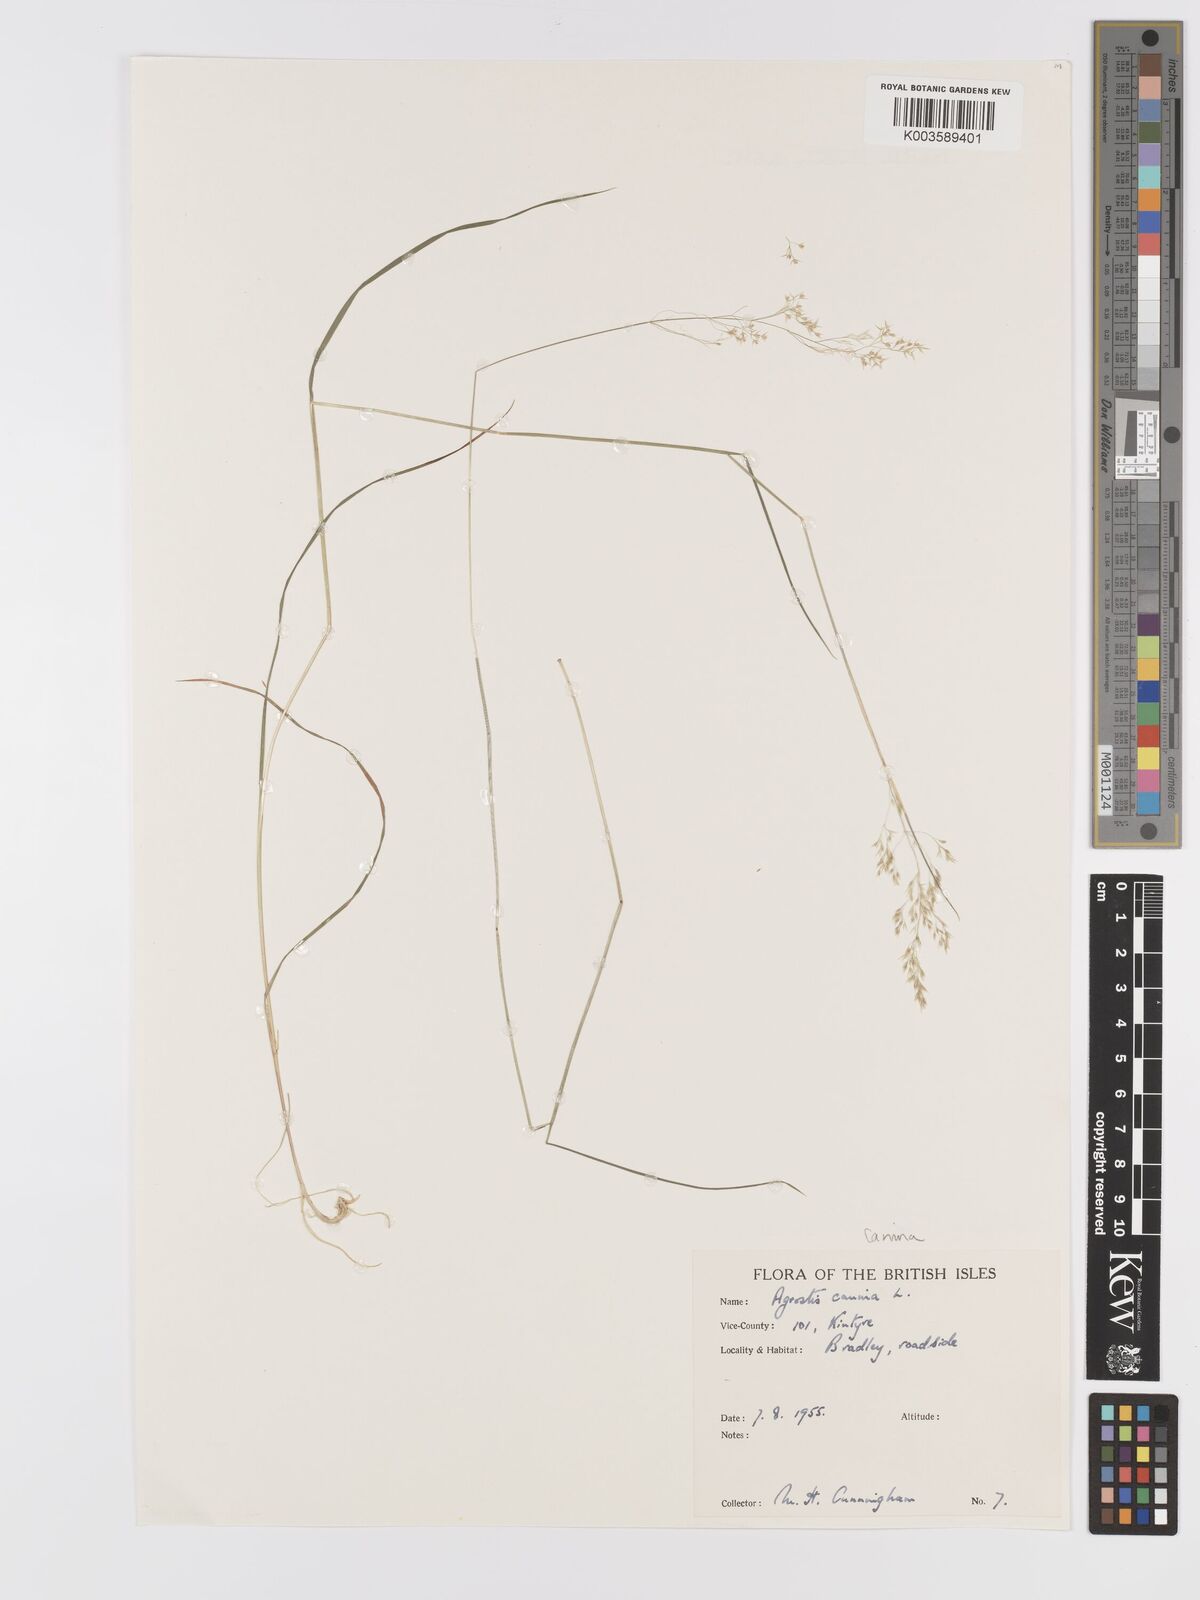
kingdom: Plantae
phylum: Tracheophyta
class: Liliopsida
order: Poales
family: Poaceae
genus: Agrostis
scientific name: Agrostis canina
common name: Velvet bent
